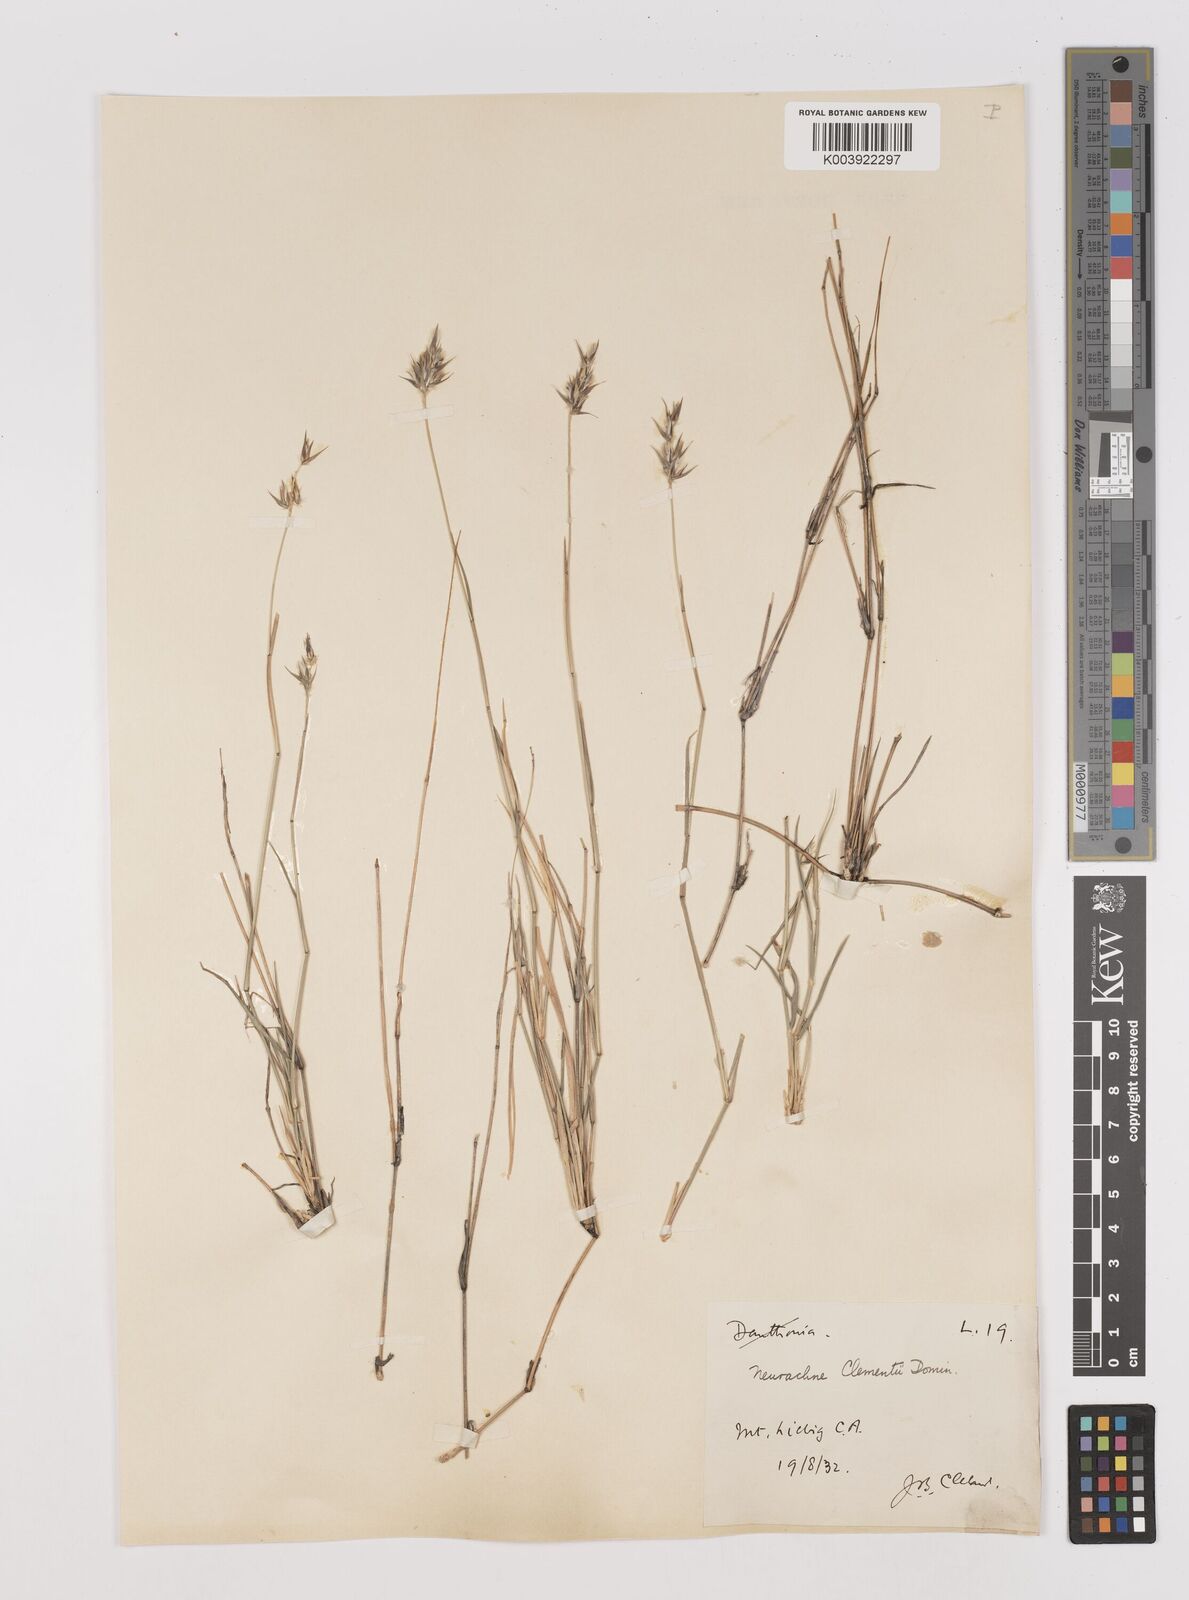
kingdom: Plantae
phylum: Tracheophyta
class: Liliopsida
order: Poales
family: Poaceae
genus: Neurachne
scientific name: Neurachne muelleri
